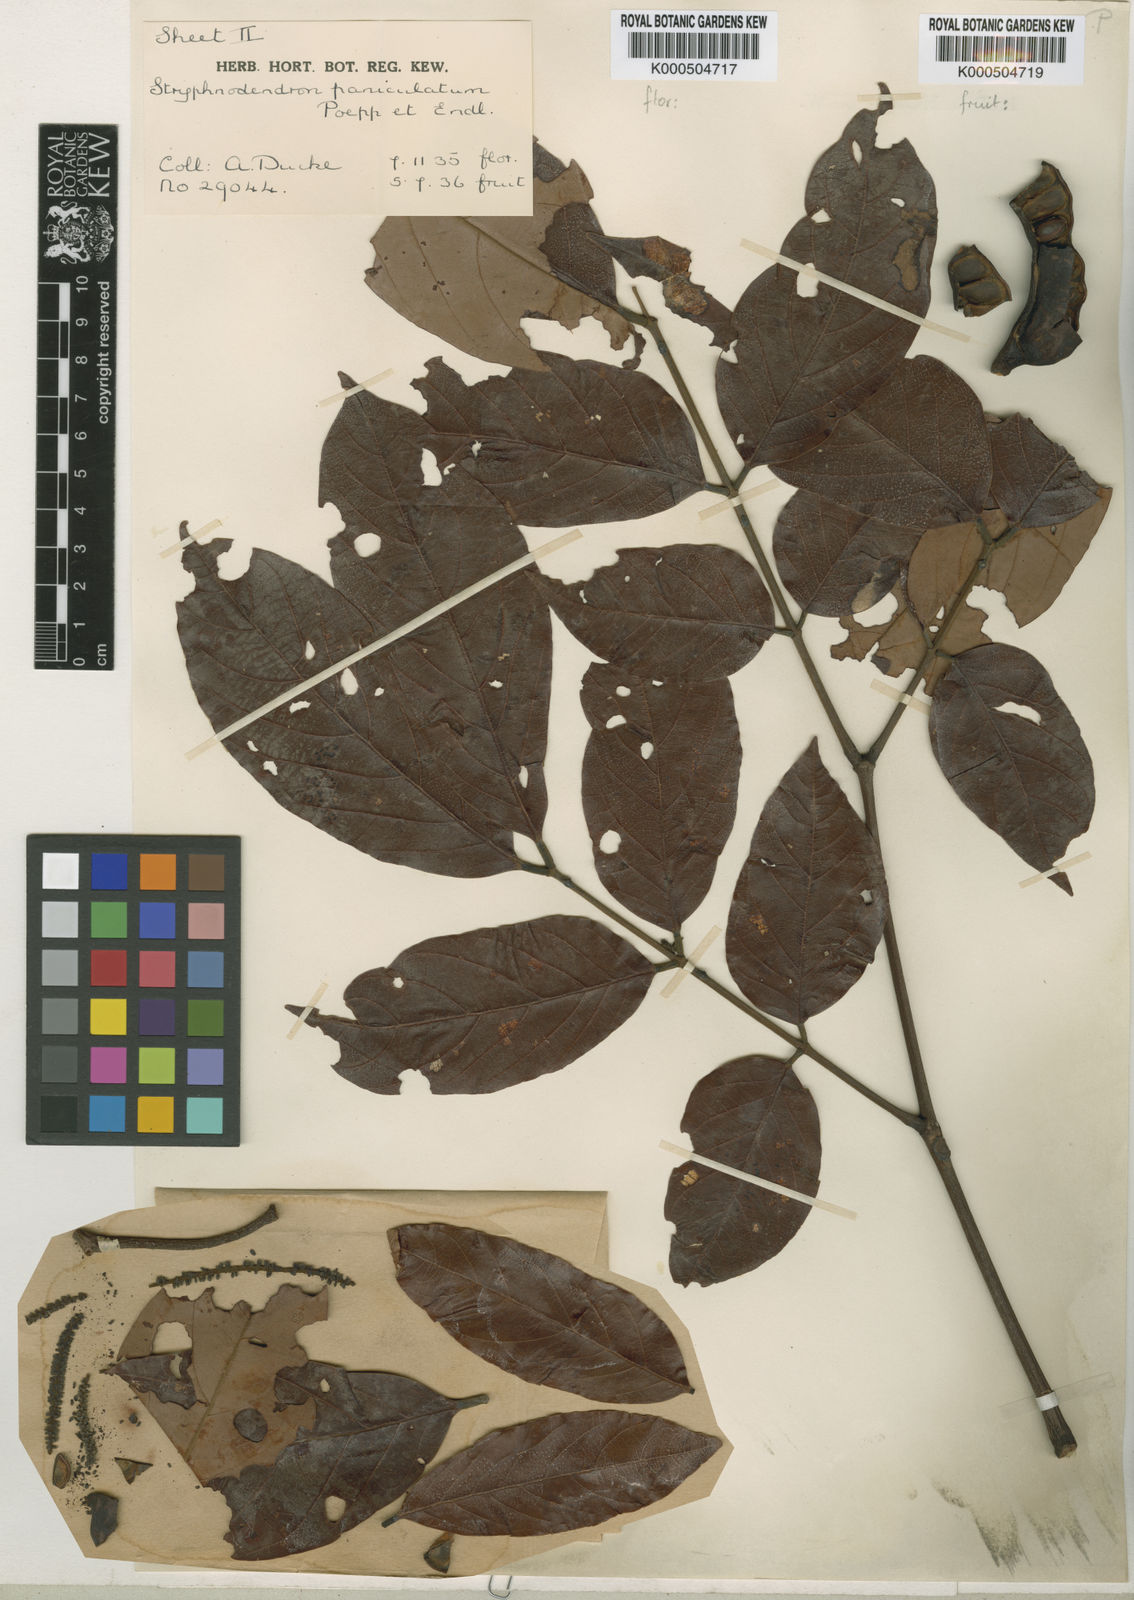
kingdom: Plantae
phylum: Tracheophyta
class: Magnoliopsida
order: Fabales
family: Fabaceae
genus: Stryphnodendron
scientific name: Stryphnodendron paniculatum
